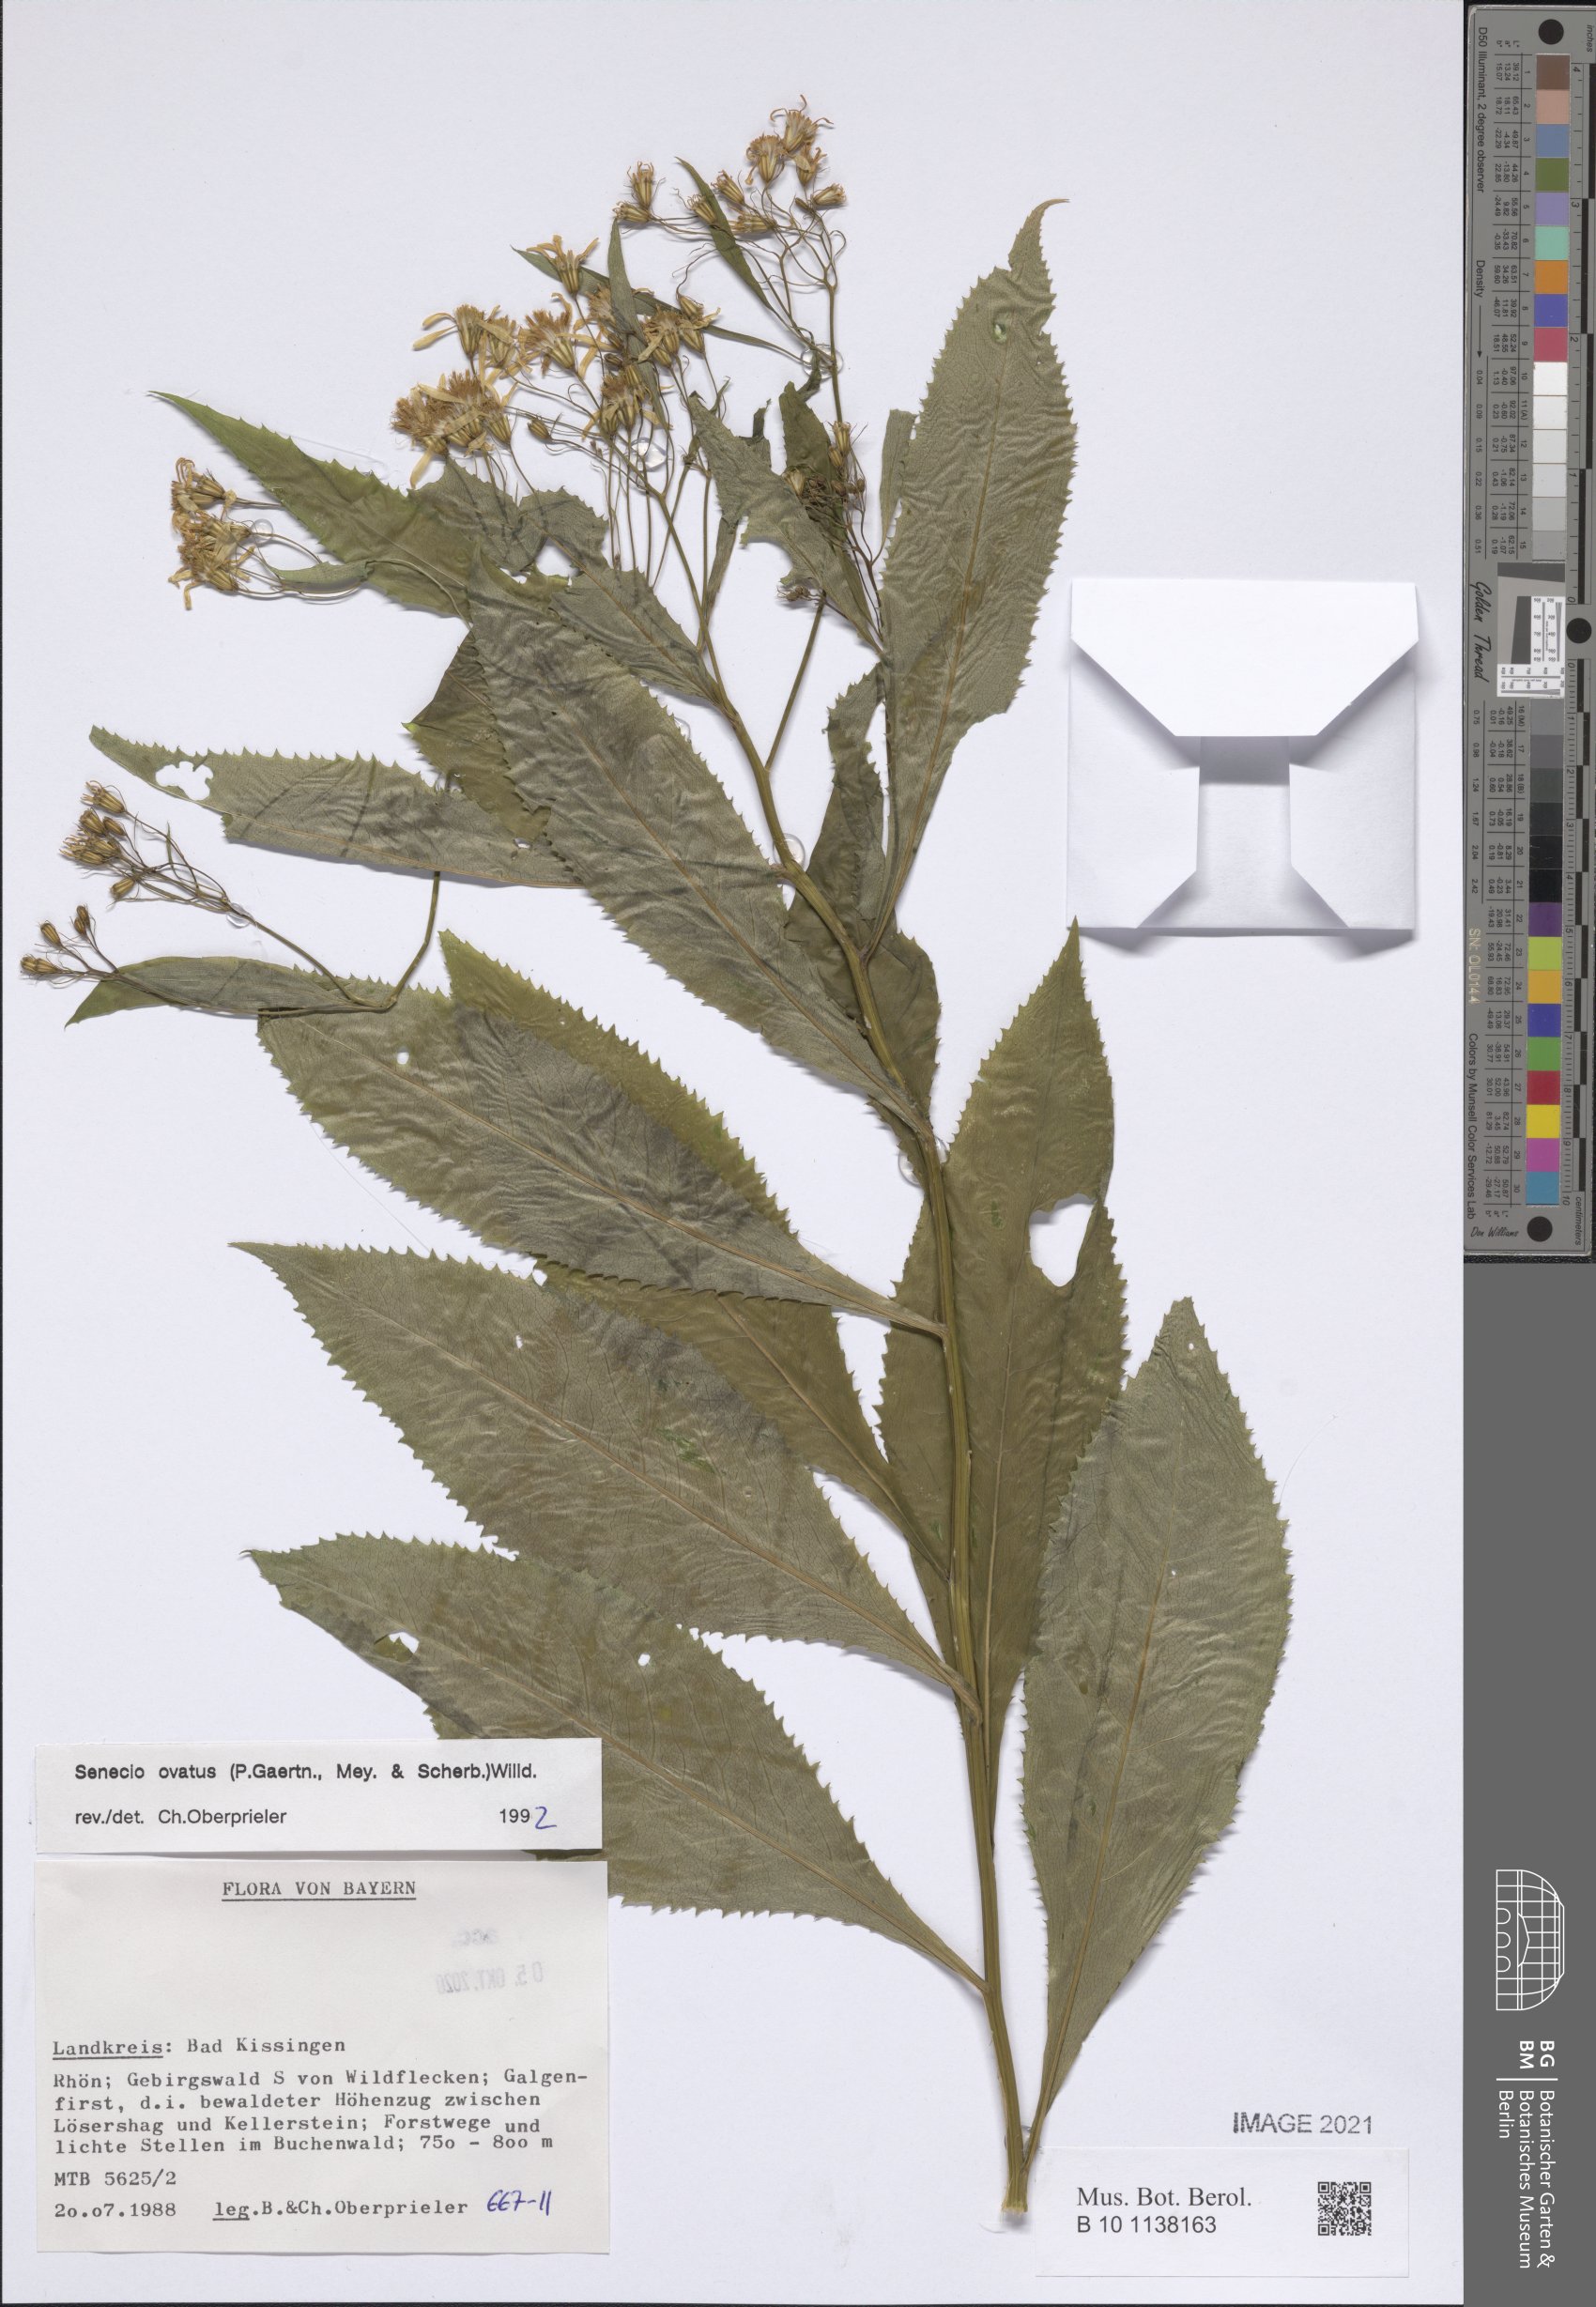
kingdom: Plantae
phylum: Tracheophyta
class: Magnoliopsida
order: Asterales
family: Asteraceae
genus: Senecio
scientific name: Senecio ovatus
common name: Wood ragwort
